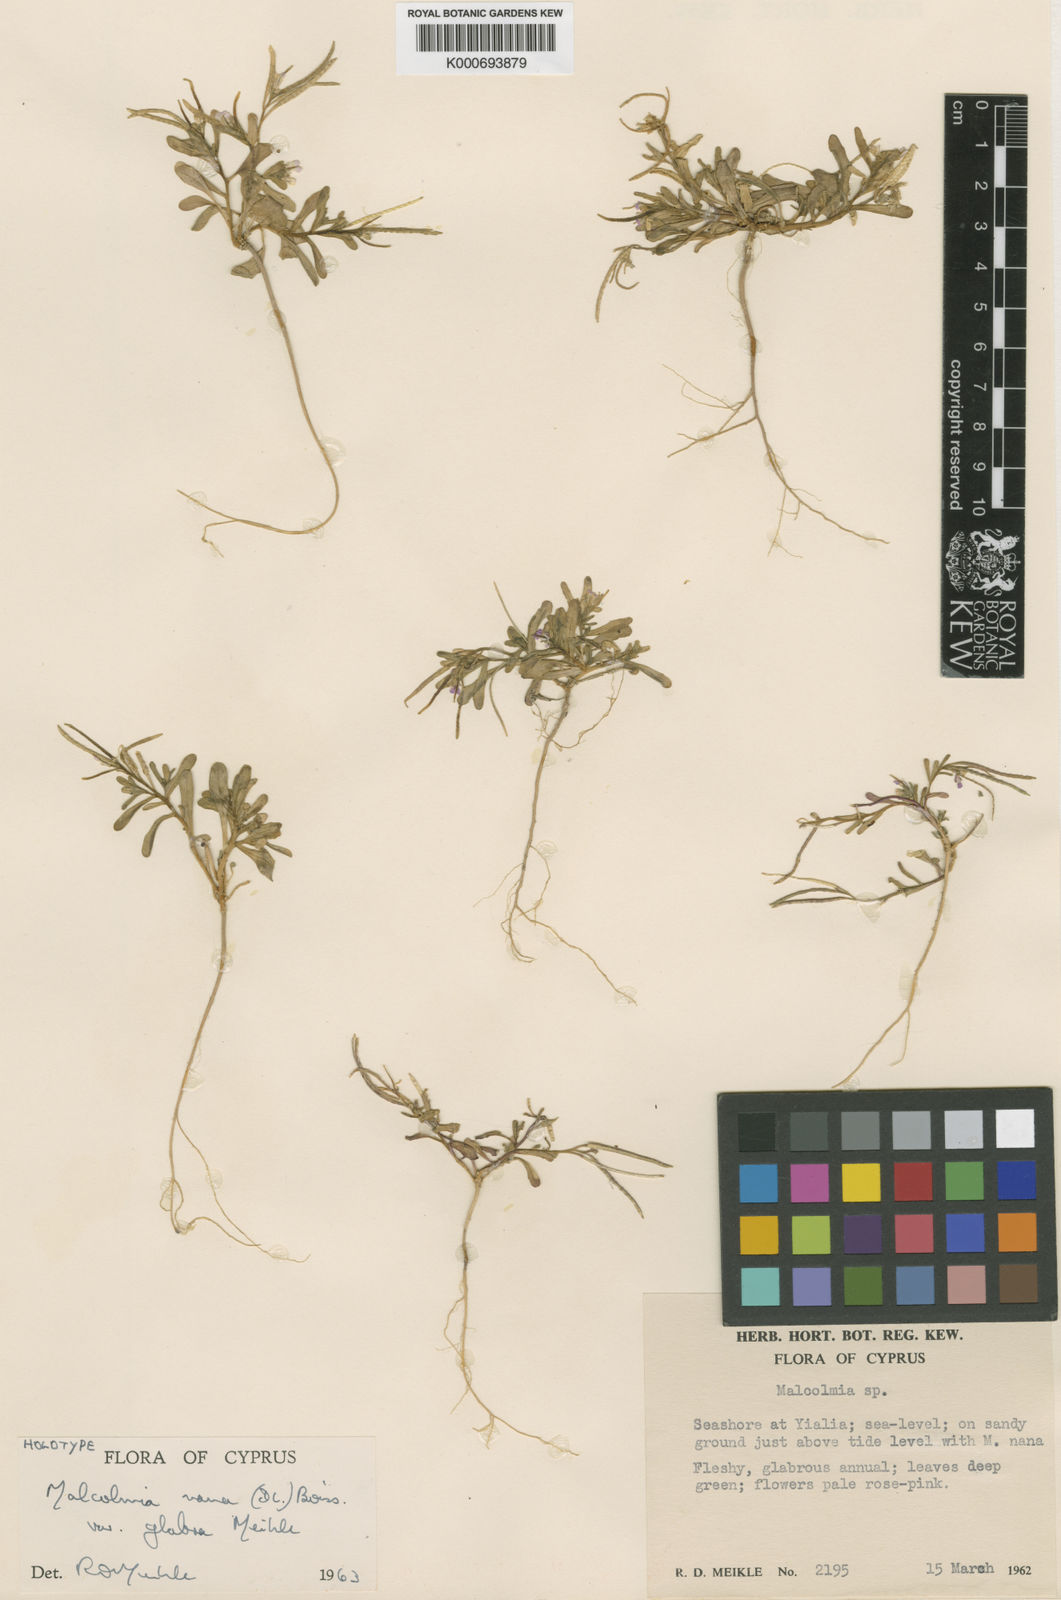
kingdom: Plantae
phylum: Tracheophyta
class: Magnoliopsida
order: Brassicales
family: Brassicaceae
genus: Maresia
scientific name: Maresia nana
